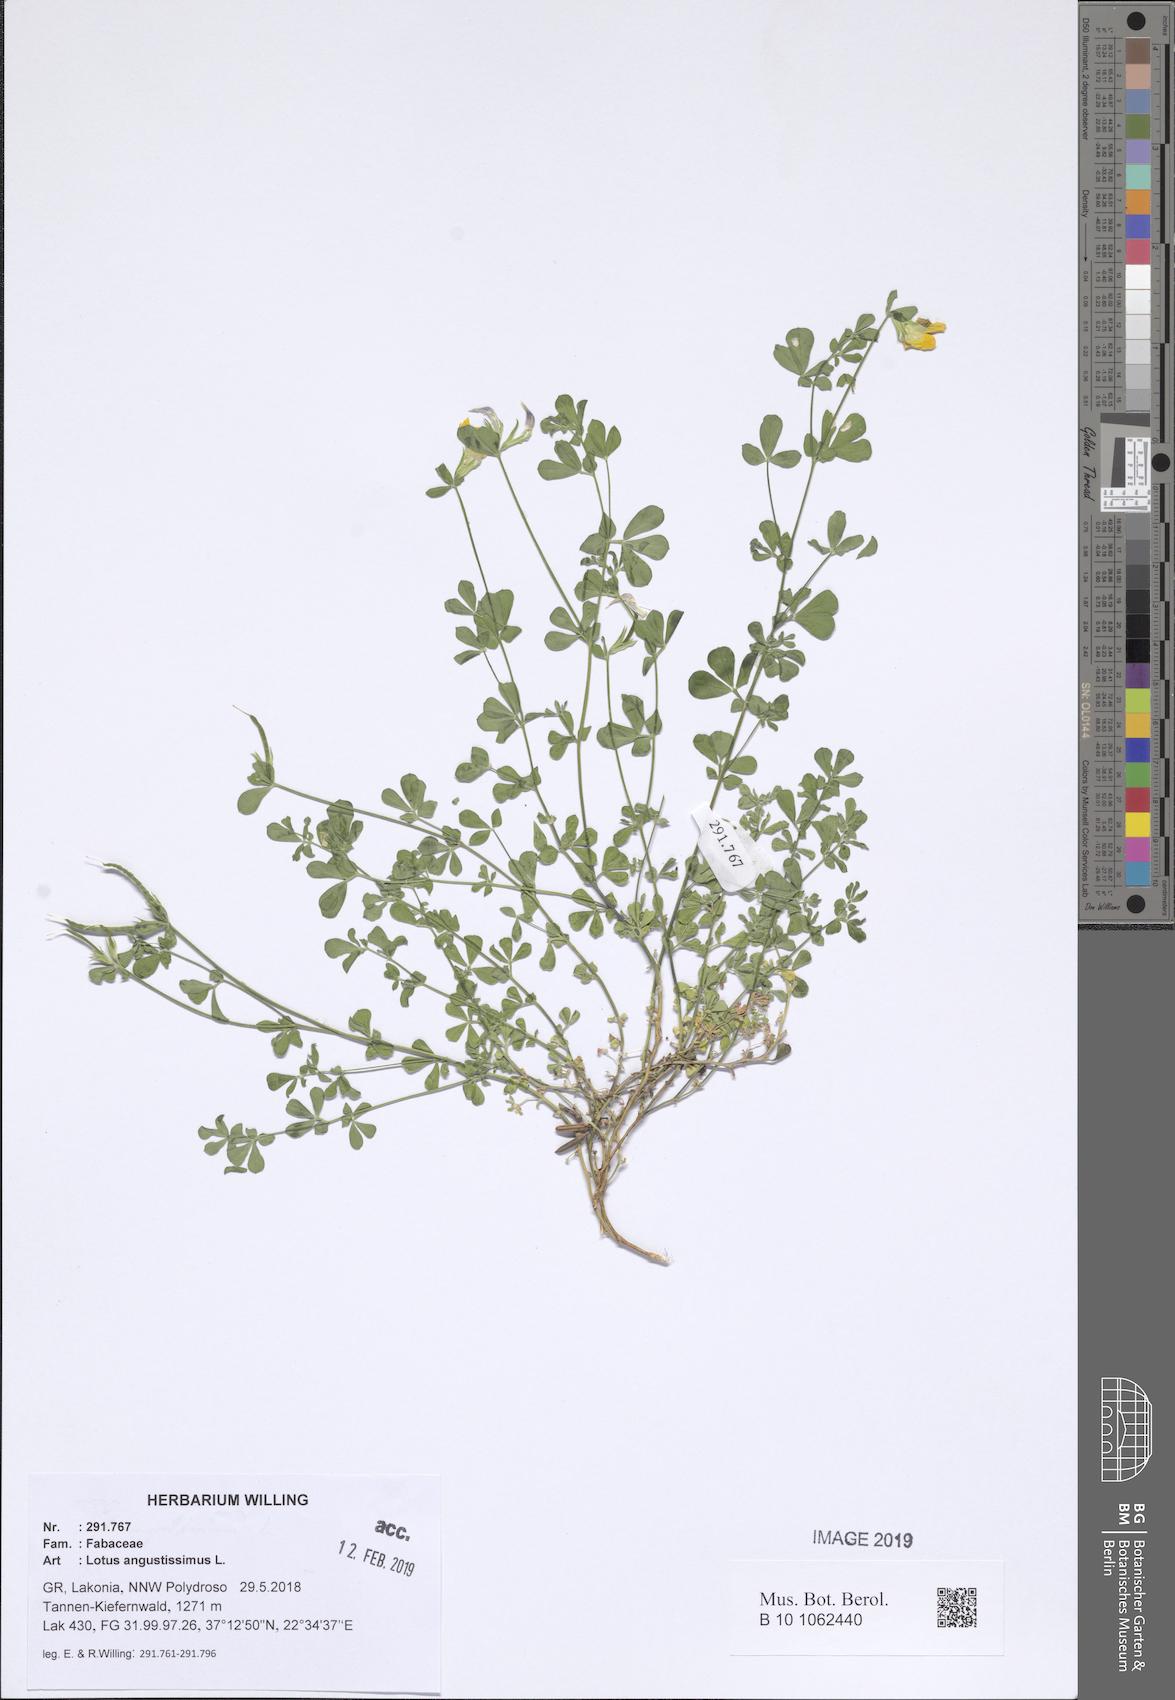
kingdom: Plantae
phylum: Tracheophyta
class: Magnoliopsida
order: Fabales
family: Fabaceae
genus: Lotus
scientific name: Lotus angustissimus
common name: Slender bird's-foot trefoil
